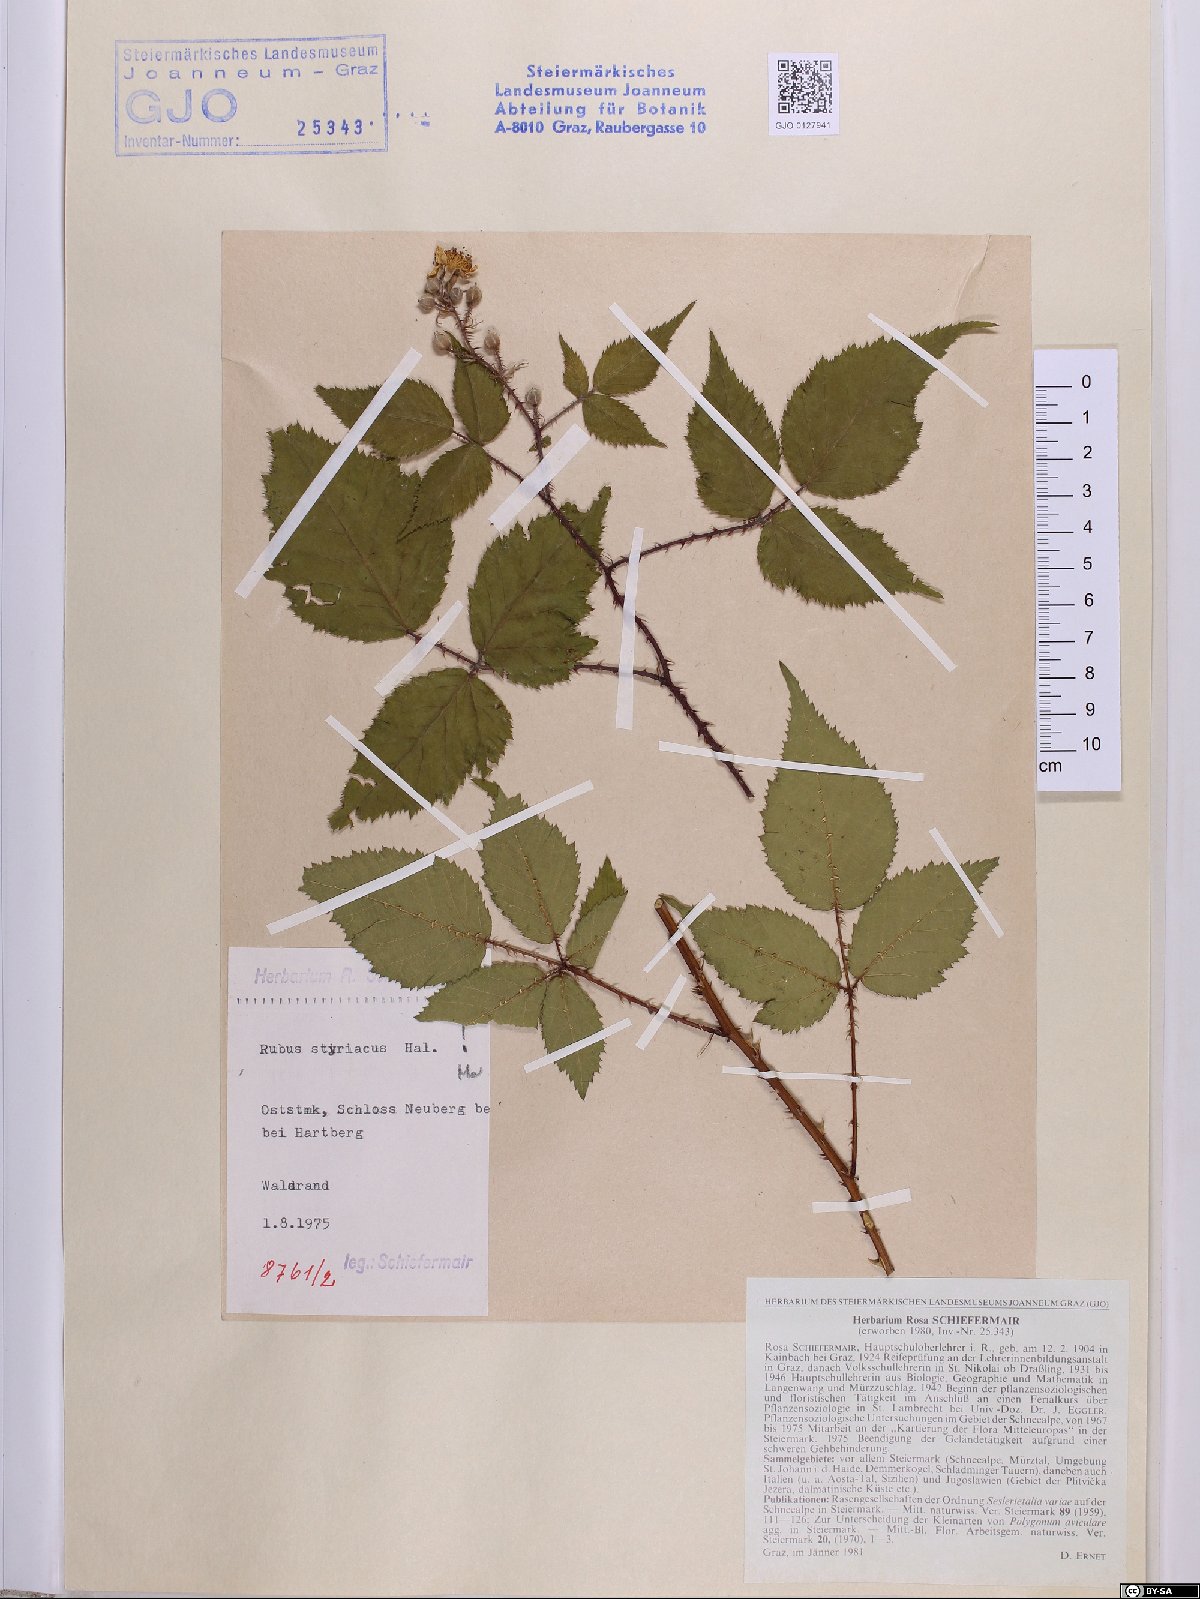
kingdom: Plantae
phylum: Tracheophyta
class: Magnoliopsida
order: Rosales
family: Rosaceae
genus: Rubus
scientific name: Rubus styriacus
